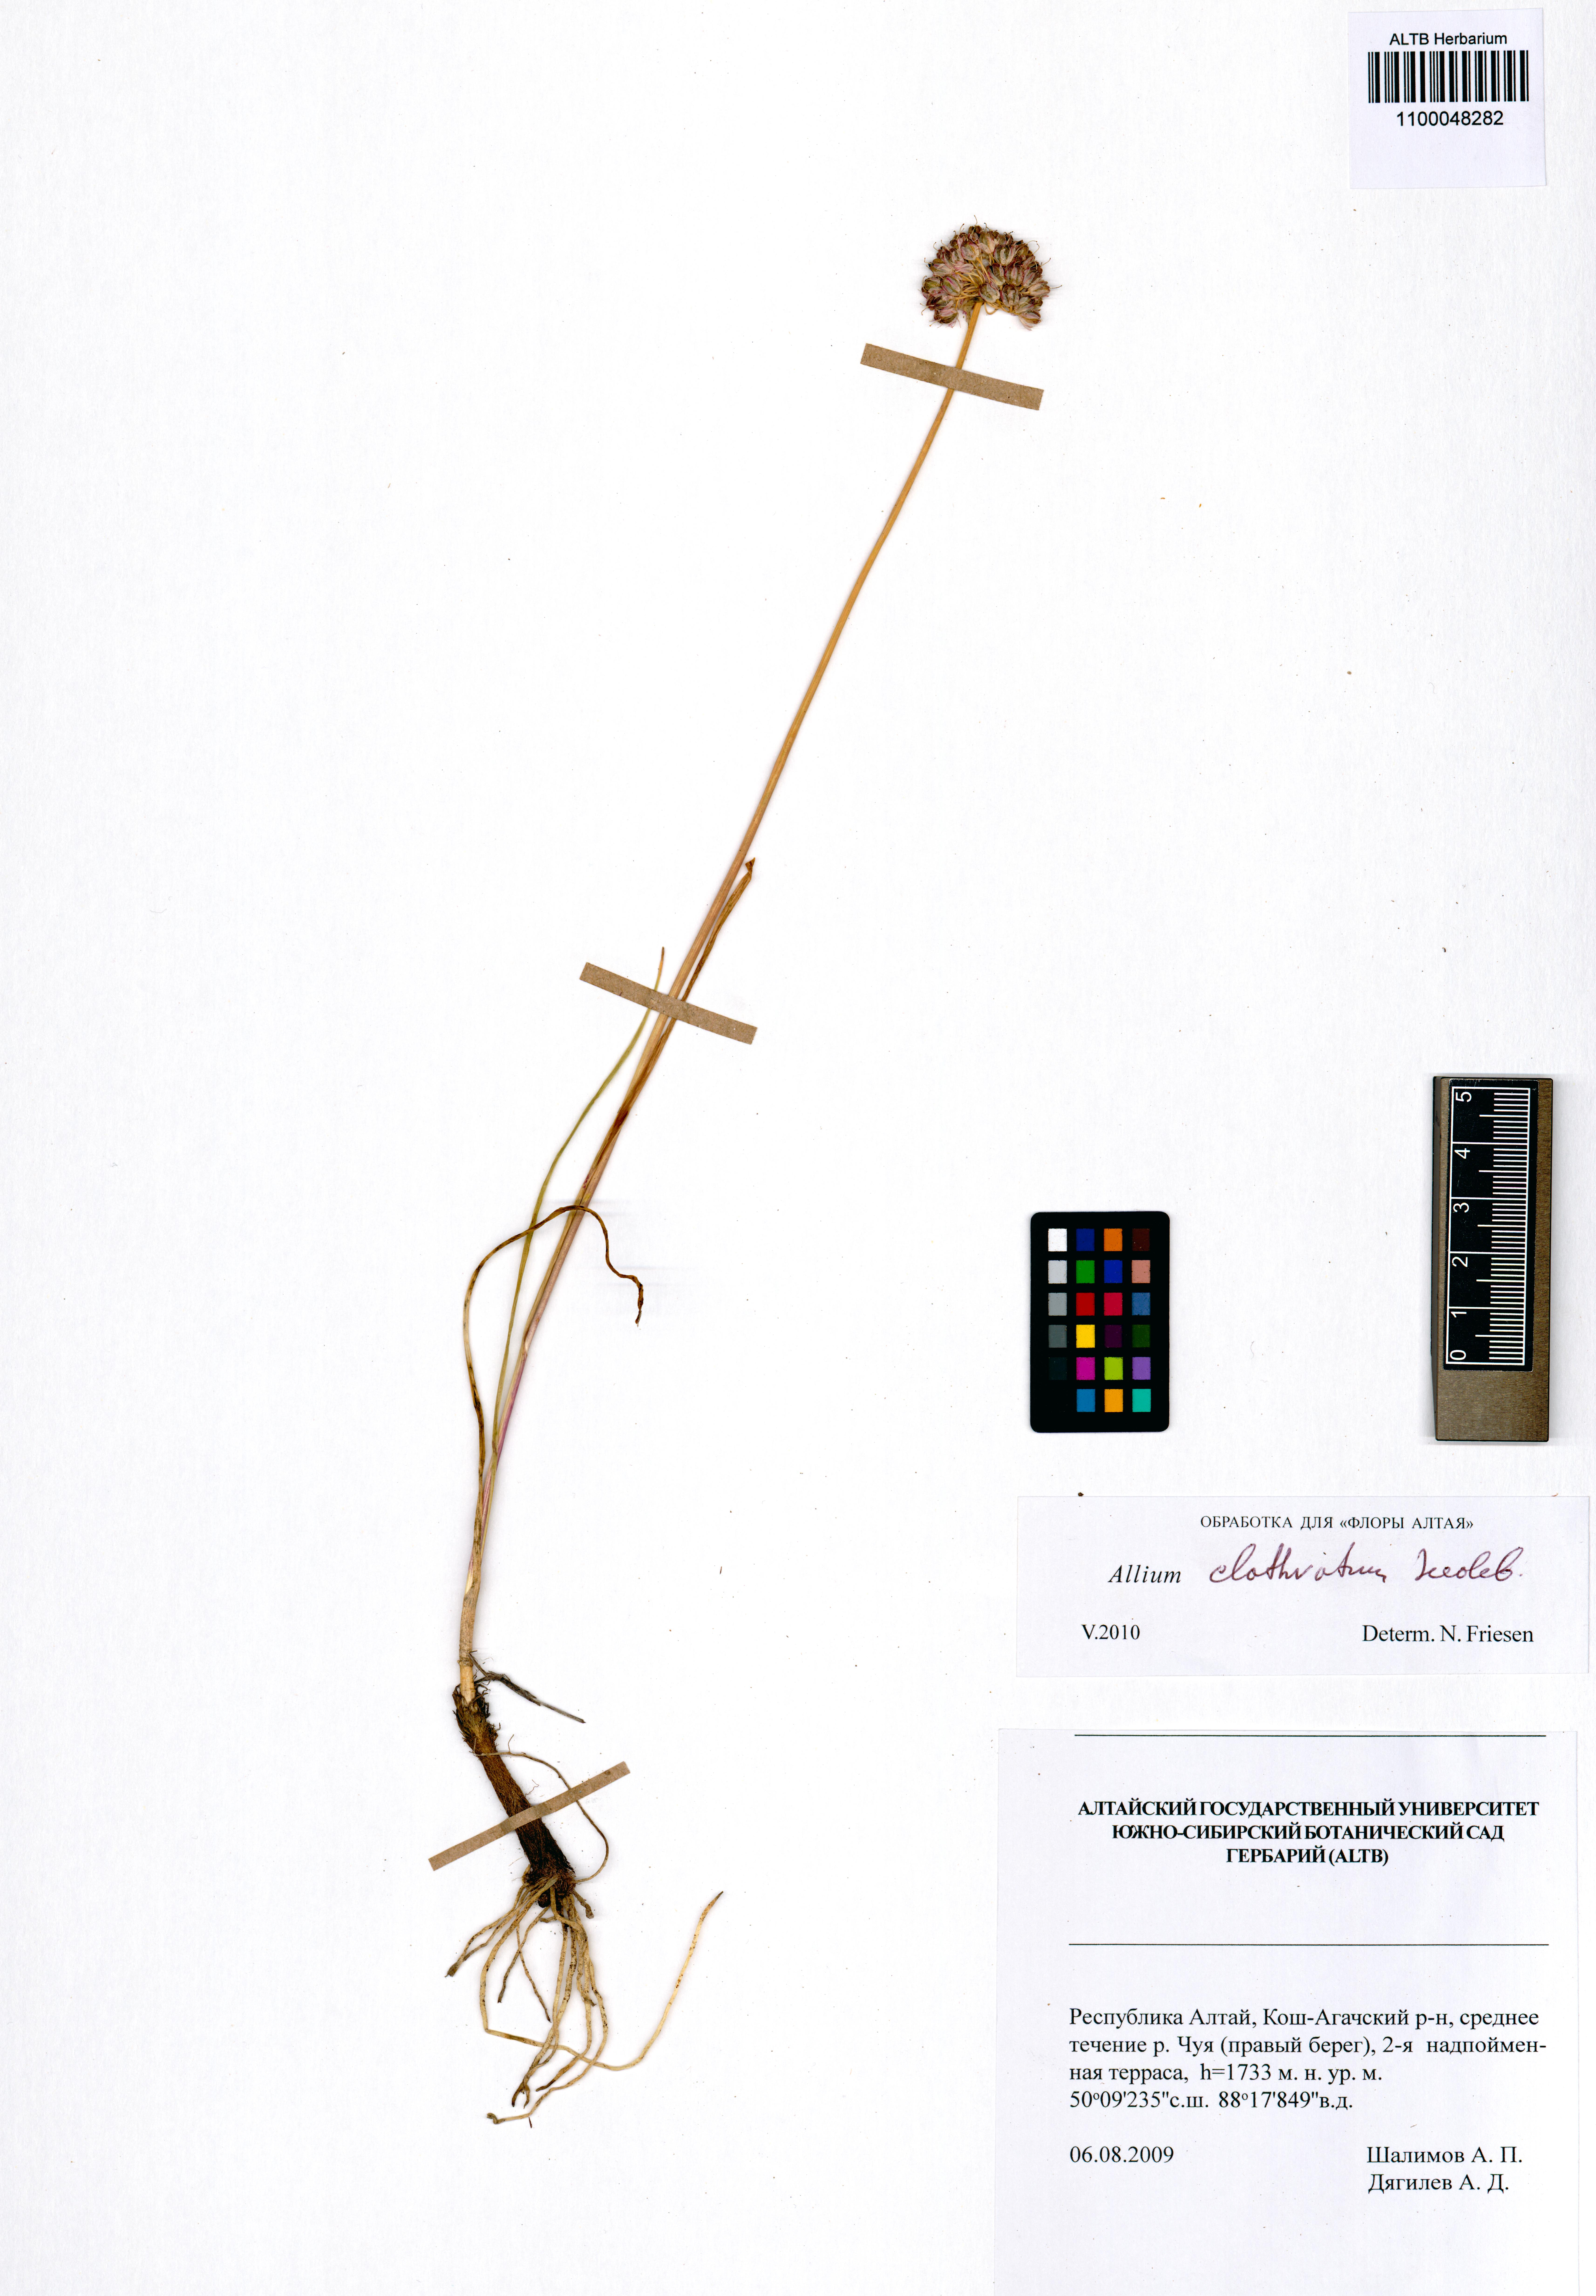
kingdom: Plantae
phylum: Tracheophyta
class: Liliopsida
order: Asparagales
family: Amaryllidaceae
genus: Allium
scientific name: Allium clathratum
